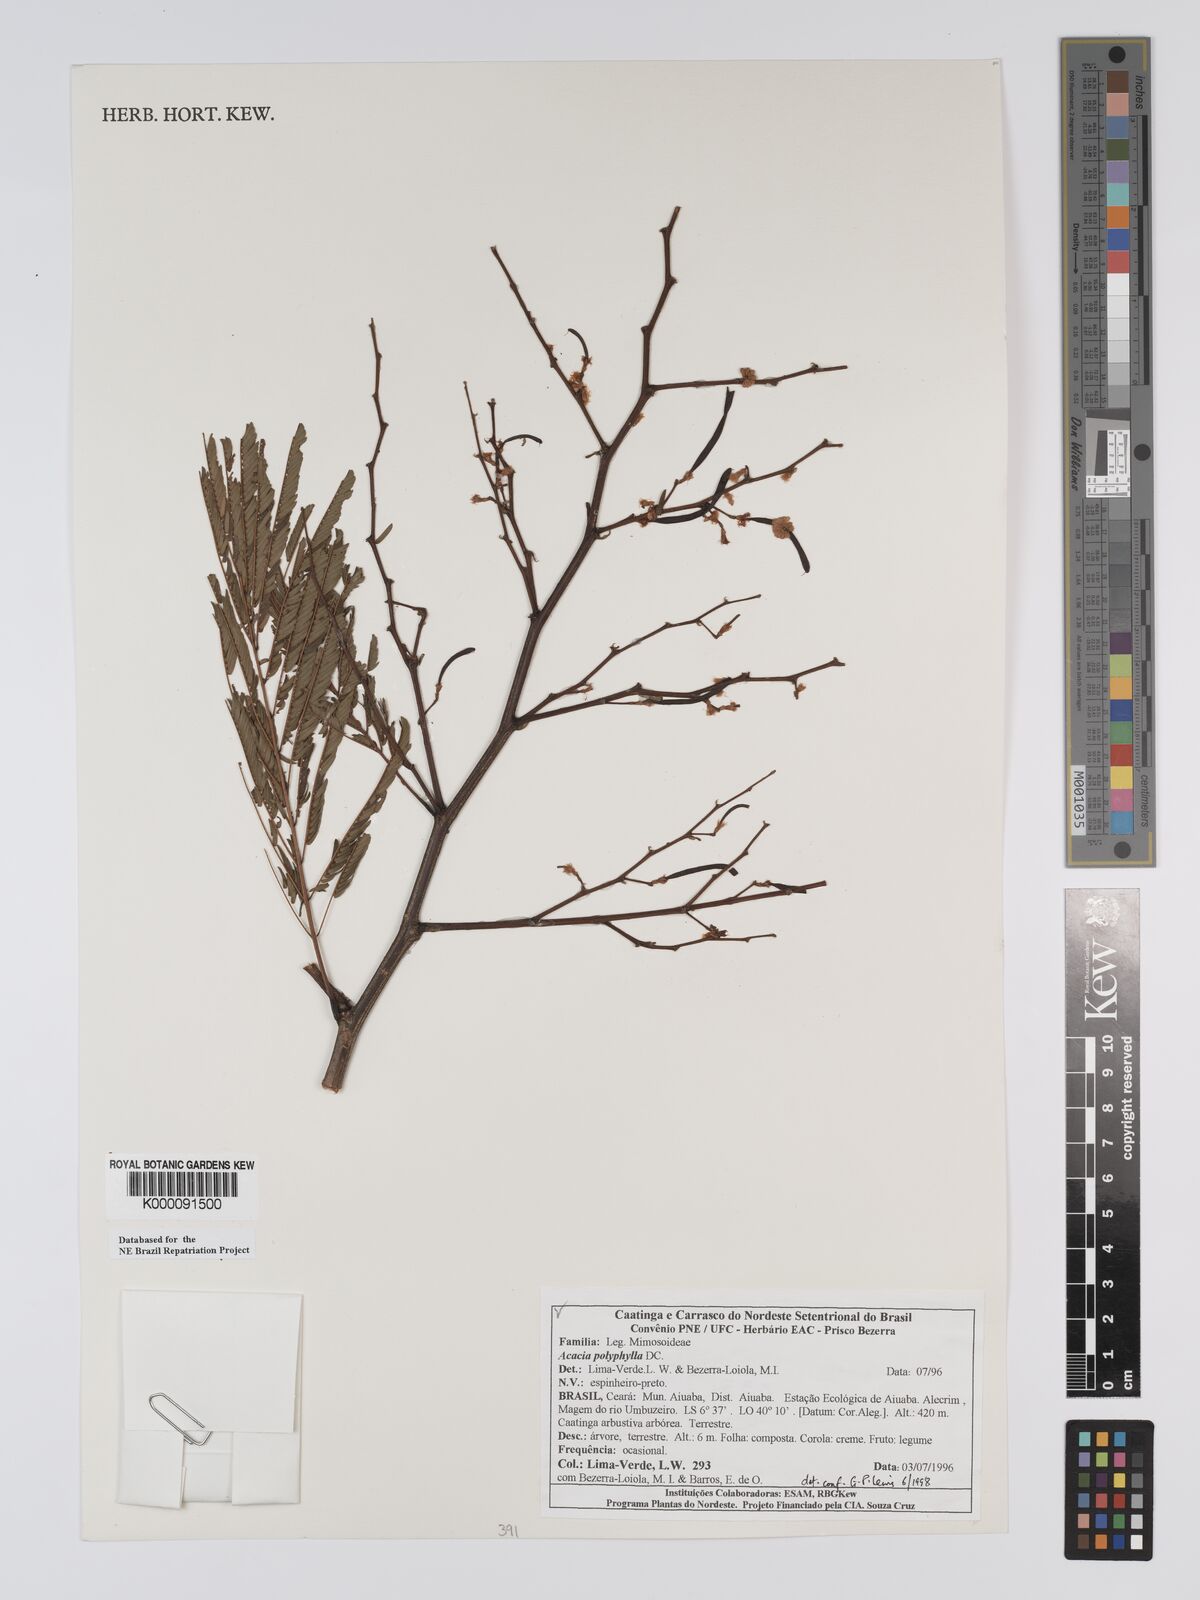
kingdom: Plantae
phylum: Tracheophyta
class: Magnoliopsida
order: Fabales
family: Fabaceae
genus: Senegalia
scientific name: Senegalia polyphylla
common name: White-tamarind
